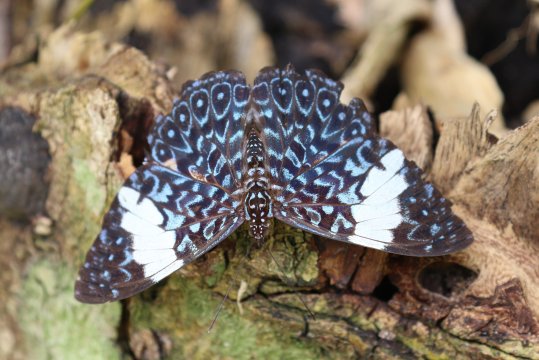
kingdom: Animalia
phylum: Arthropoda
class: Insecta
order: Lepidoptera
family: Nymphalidae
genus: Hamadryas
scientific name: Hamadryas arinome
